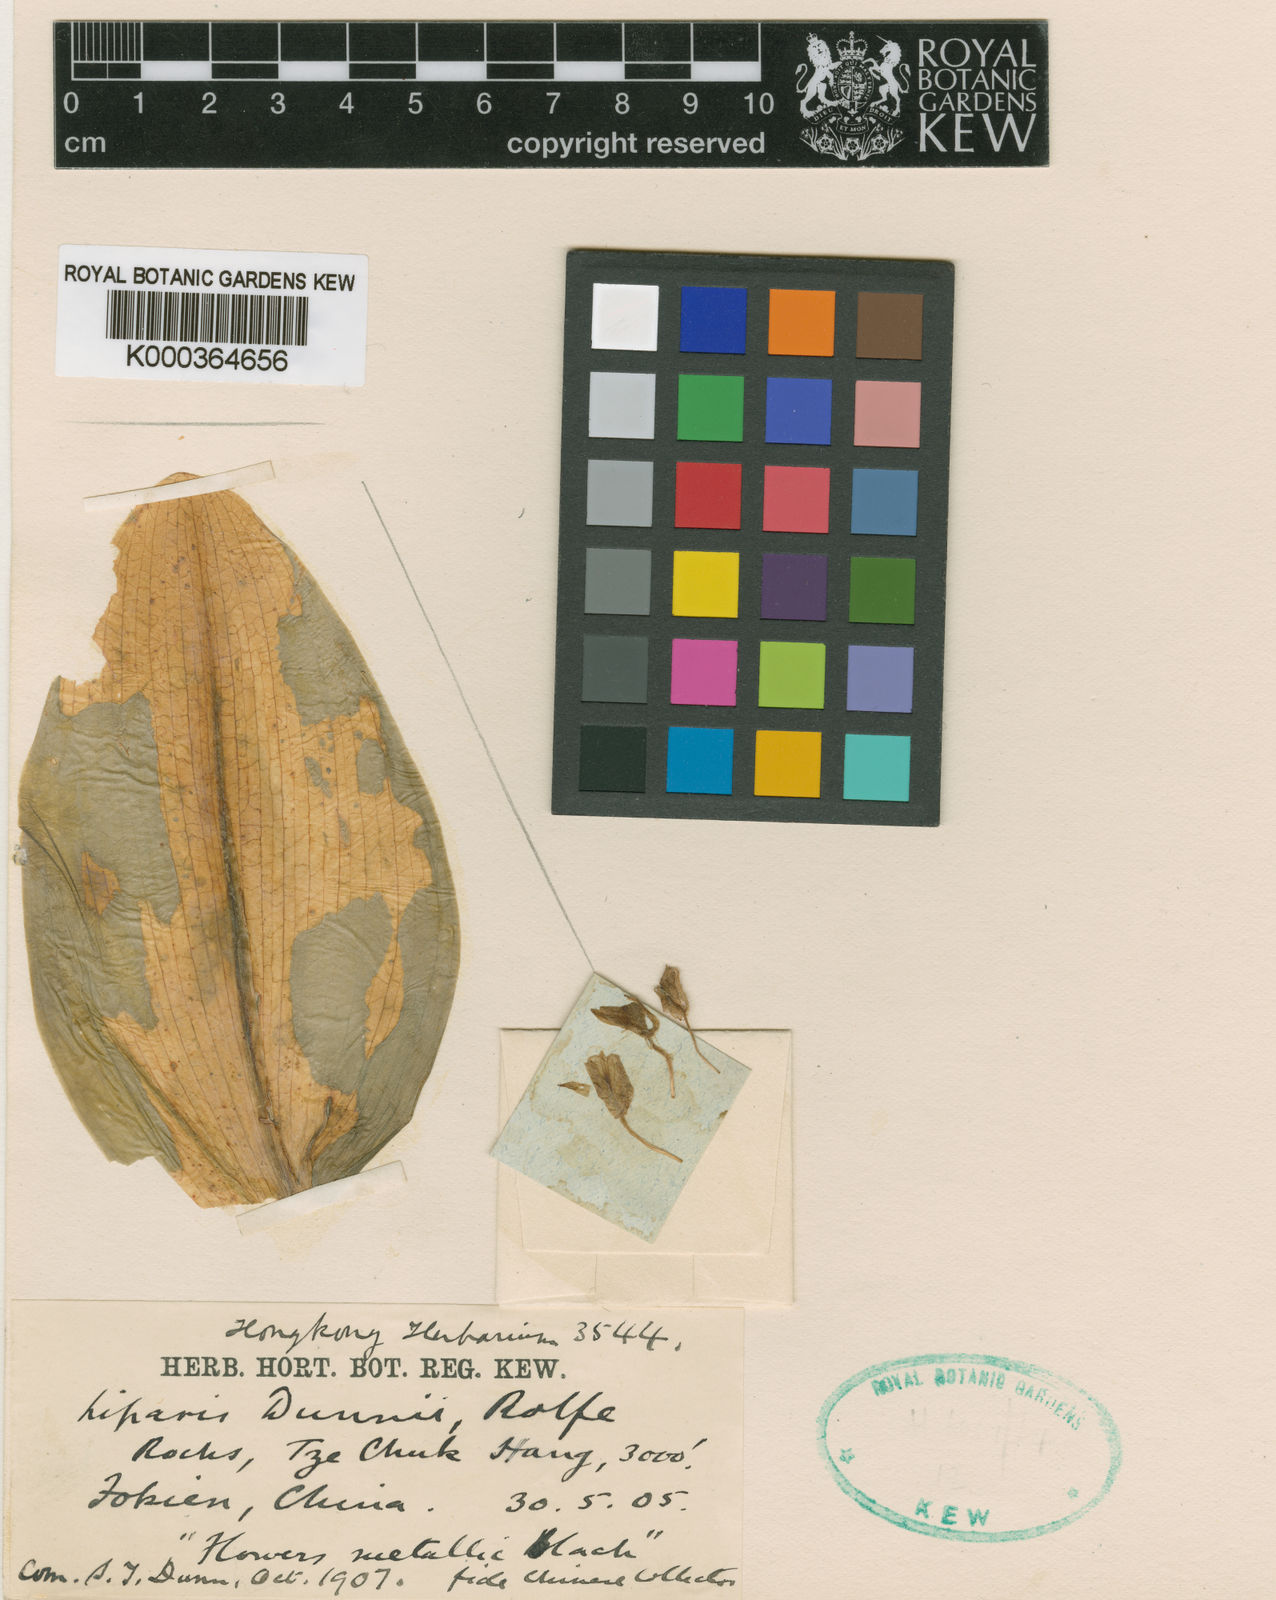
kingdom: Plantae
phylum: Tracheophyta
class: Liliopsida
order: Asparagales
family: Orchidaceae
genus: Liparis
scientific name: Liparis condylobulbon
